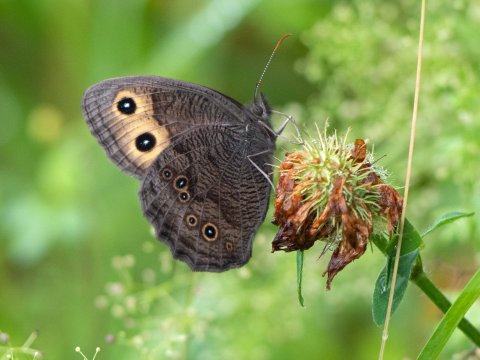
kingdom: Animalia
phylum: Arthropoda
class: Insecta
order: Lepidoptera
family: Nymphalidae
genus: Cercyonis
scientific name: Cercyonis pegala
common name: Common Wood-Nymph
